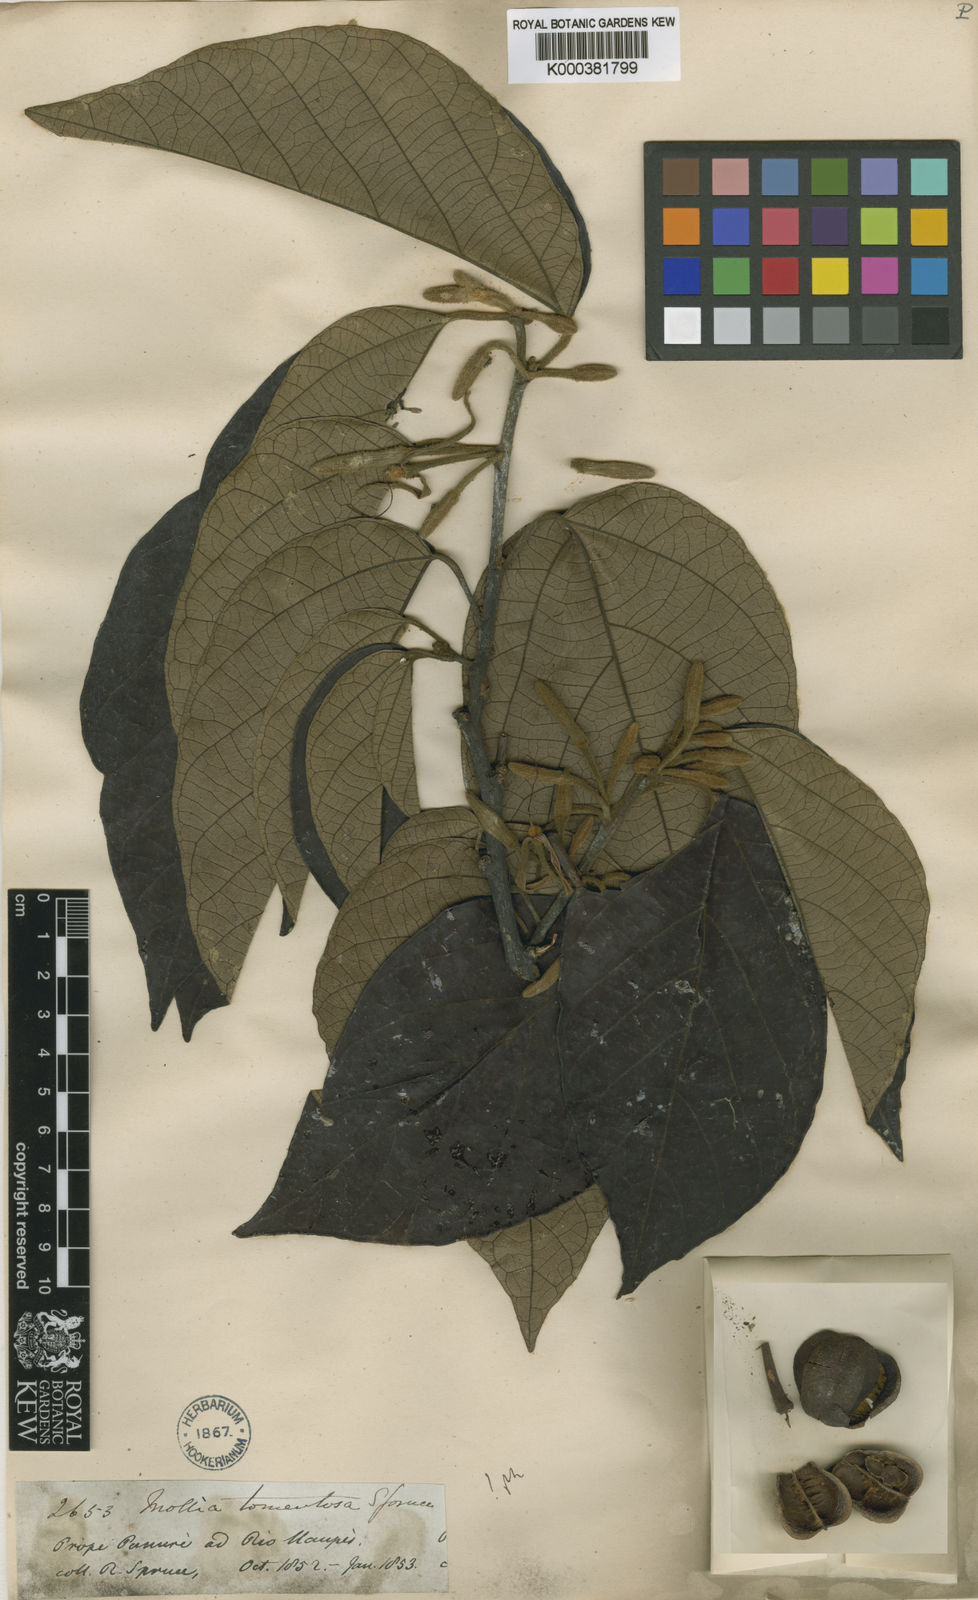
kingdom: Plantae
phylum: Tracheophyta
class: Magnoliopsida
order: Malvales
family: Malvaceae
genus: Mollia
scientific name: Mollia tomentosa
